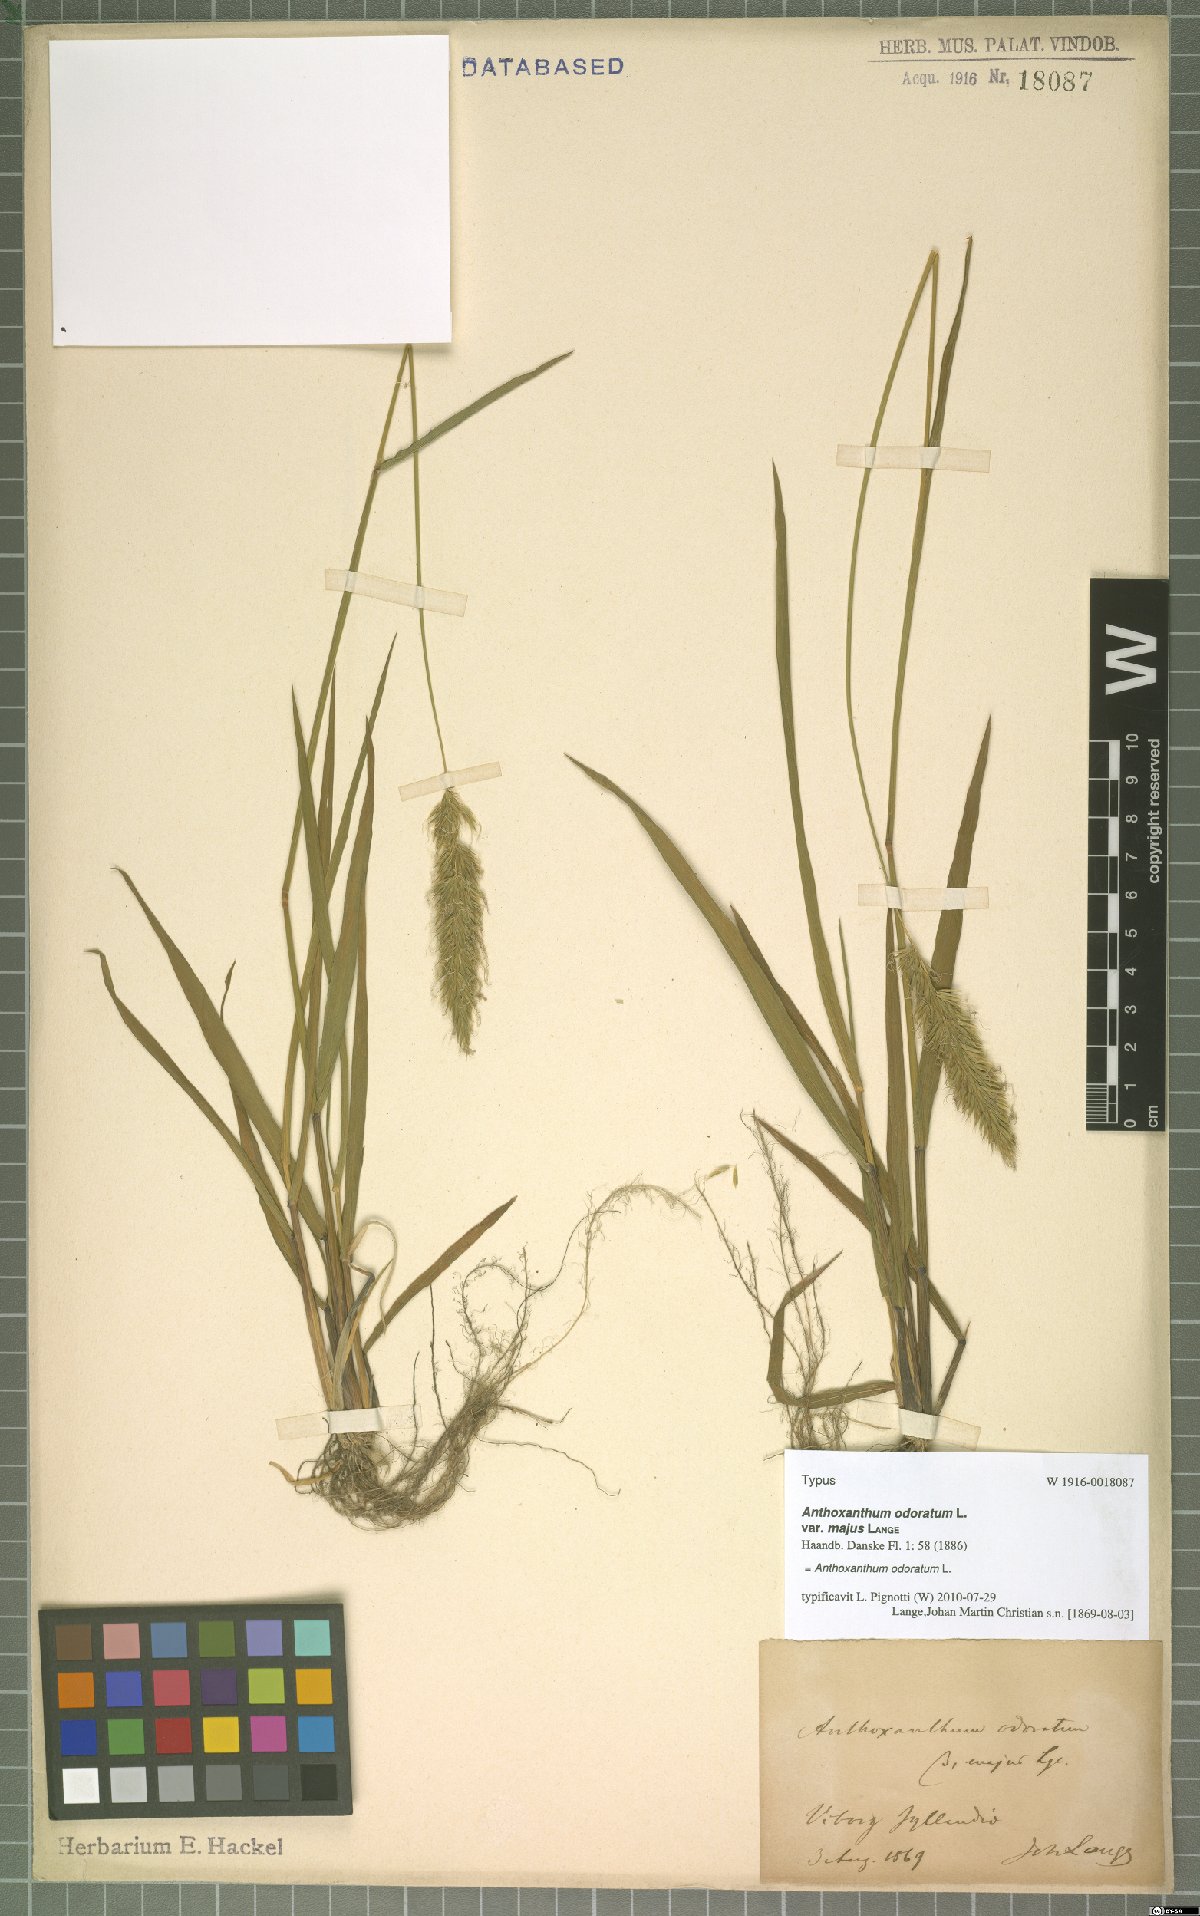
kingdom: Plantae
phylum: Tracheophyta
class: Liliopsida
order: Poales
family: Poaceae
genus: Anthoxanthum
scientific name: Anthoxanthum odoratum
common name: Sweet vernalgrass
